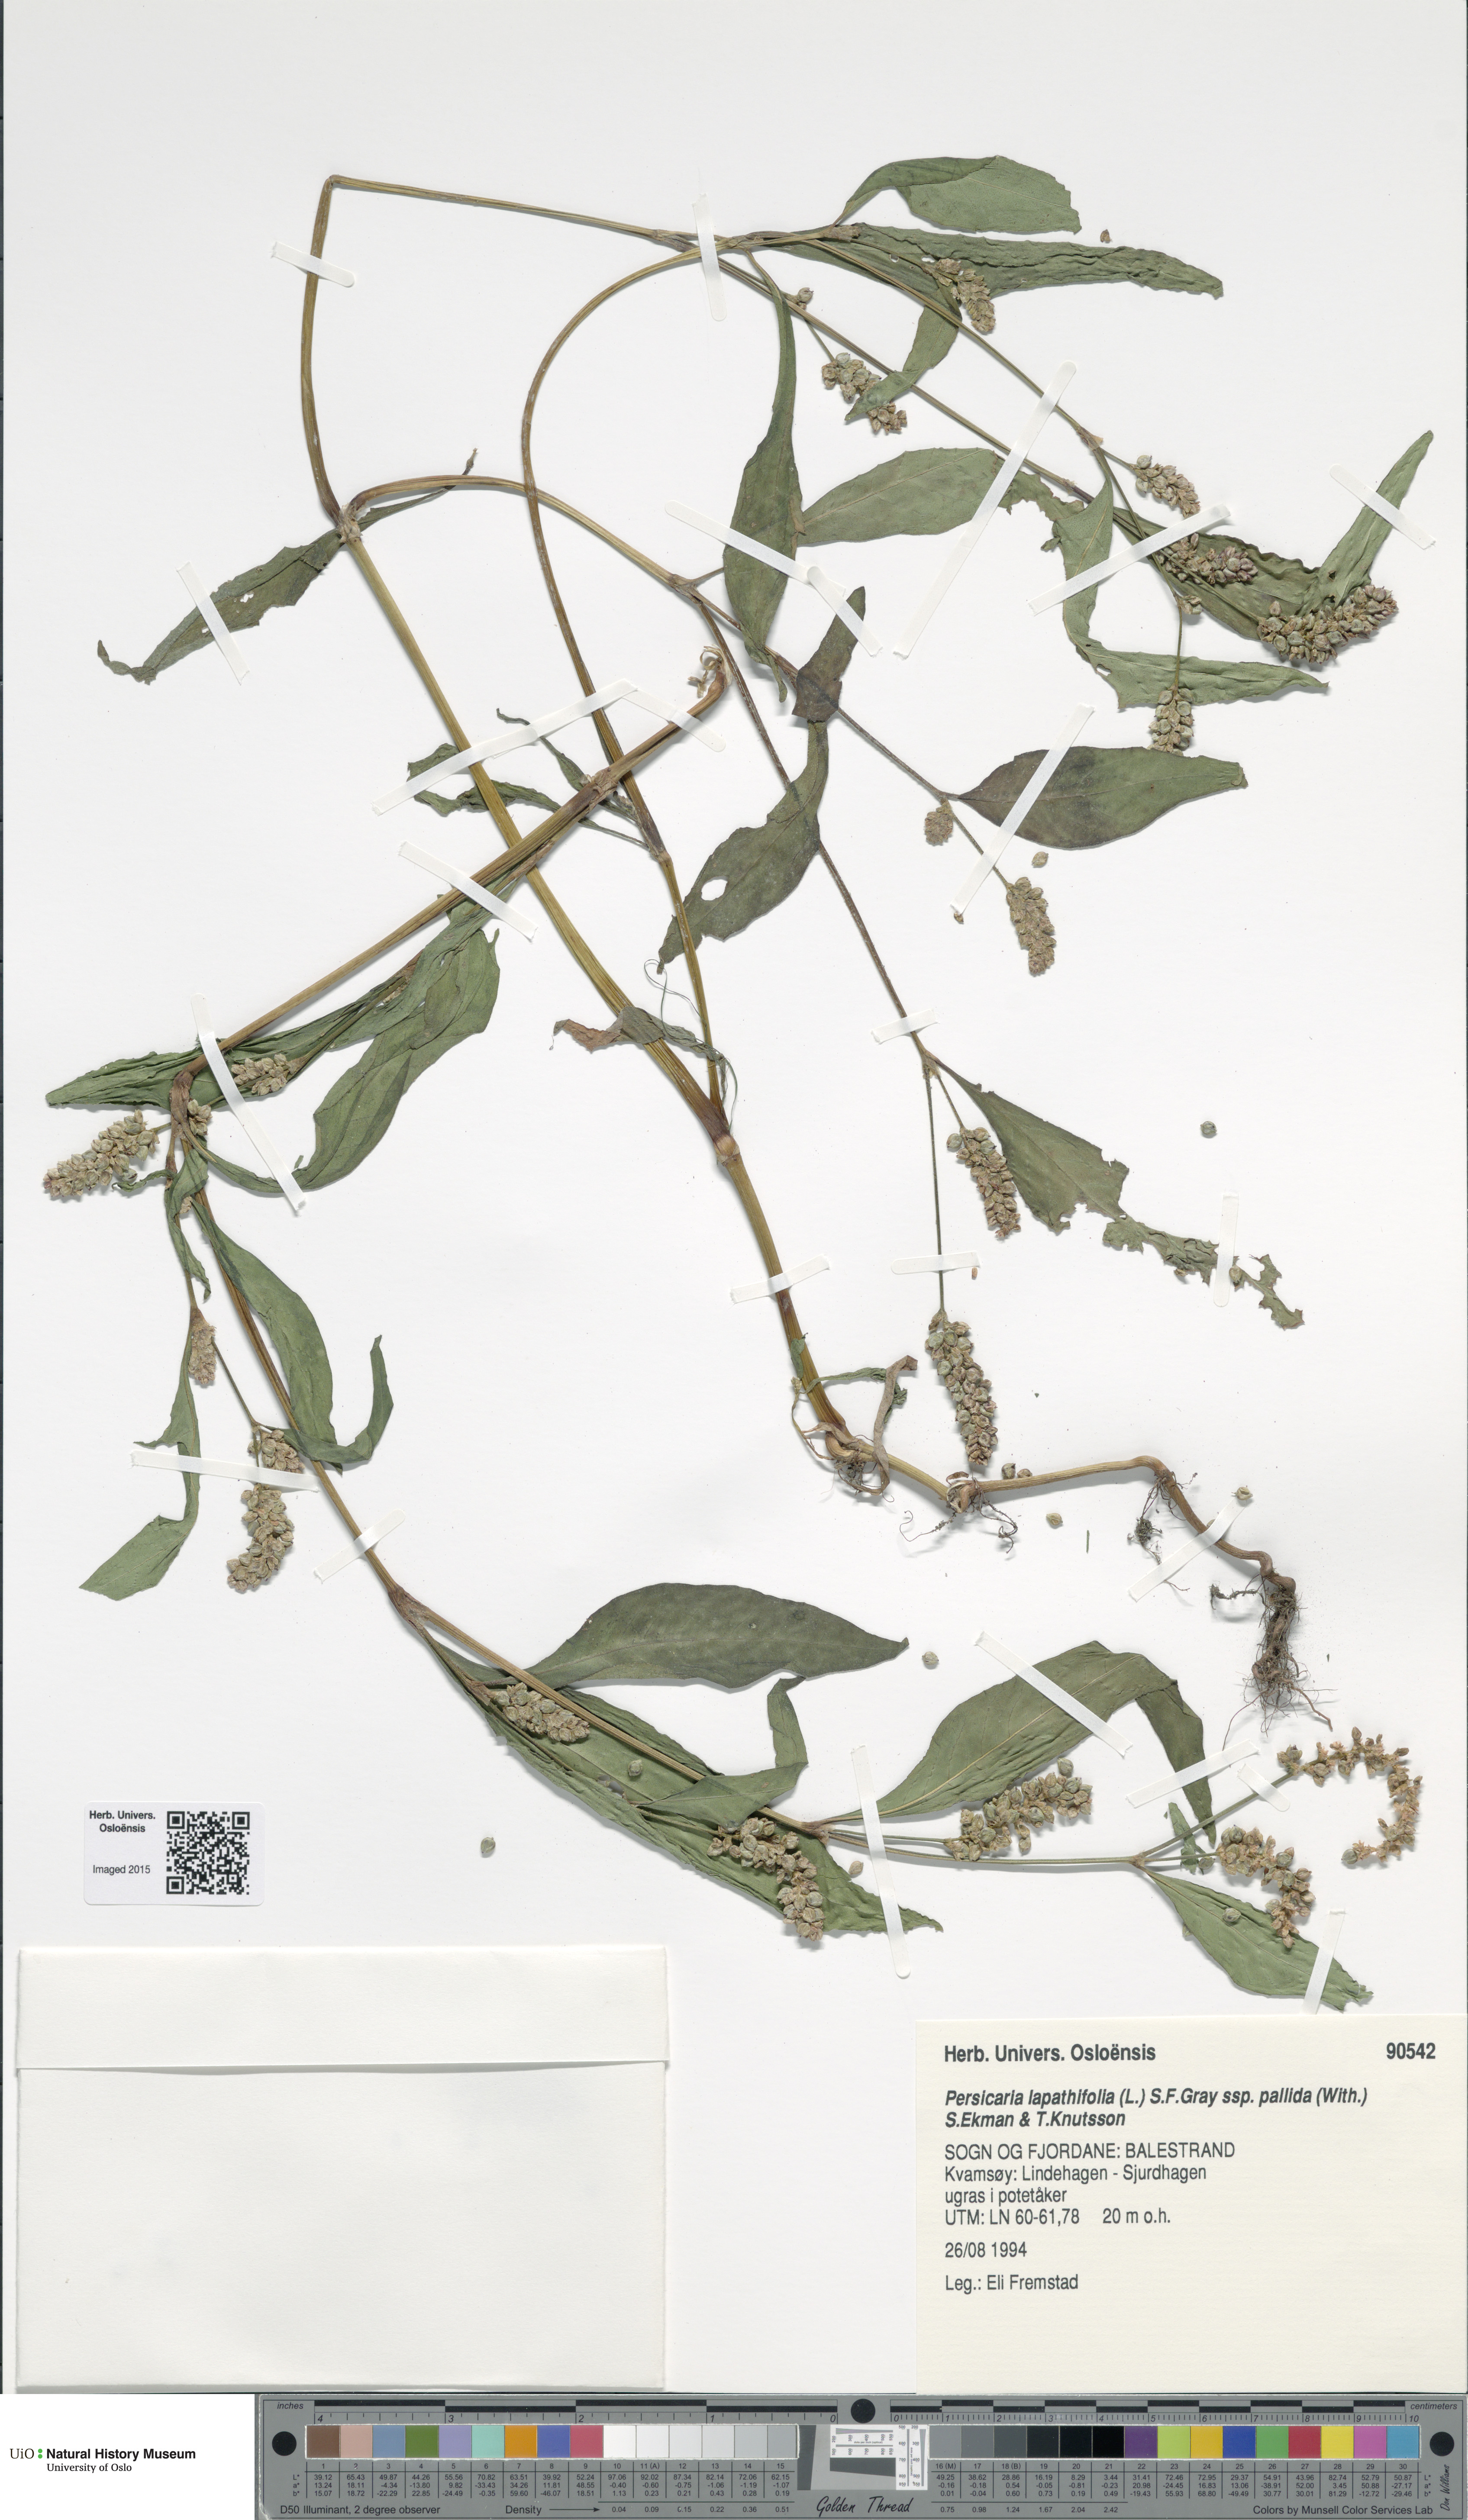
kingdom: Plantae
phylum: Tracheophyta
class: Magnoliopsida
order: Caryophyllales
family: Polygonaceae
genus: Persicaria
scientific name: Persicaria lapathifolia
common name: Curlytop knotweed
